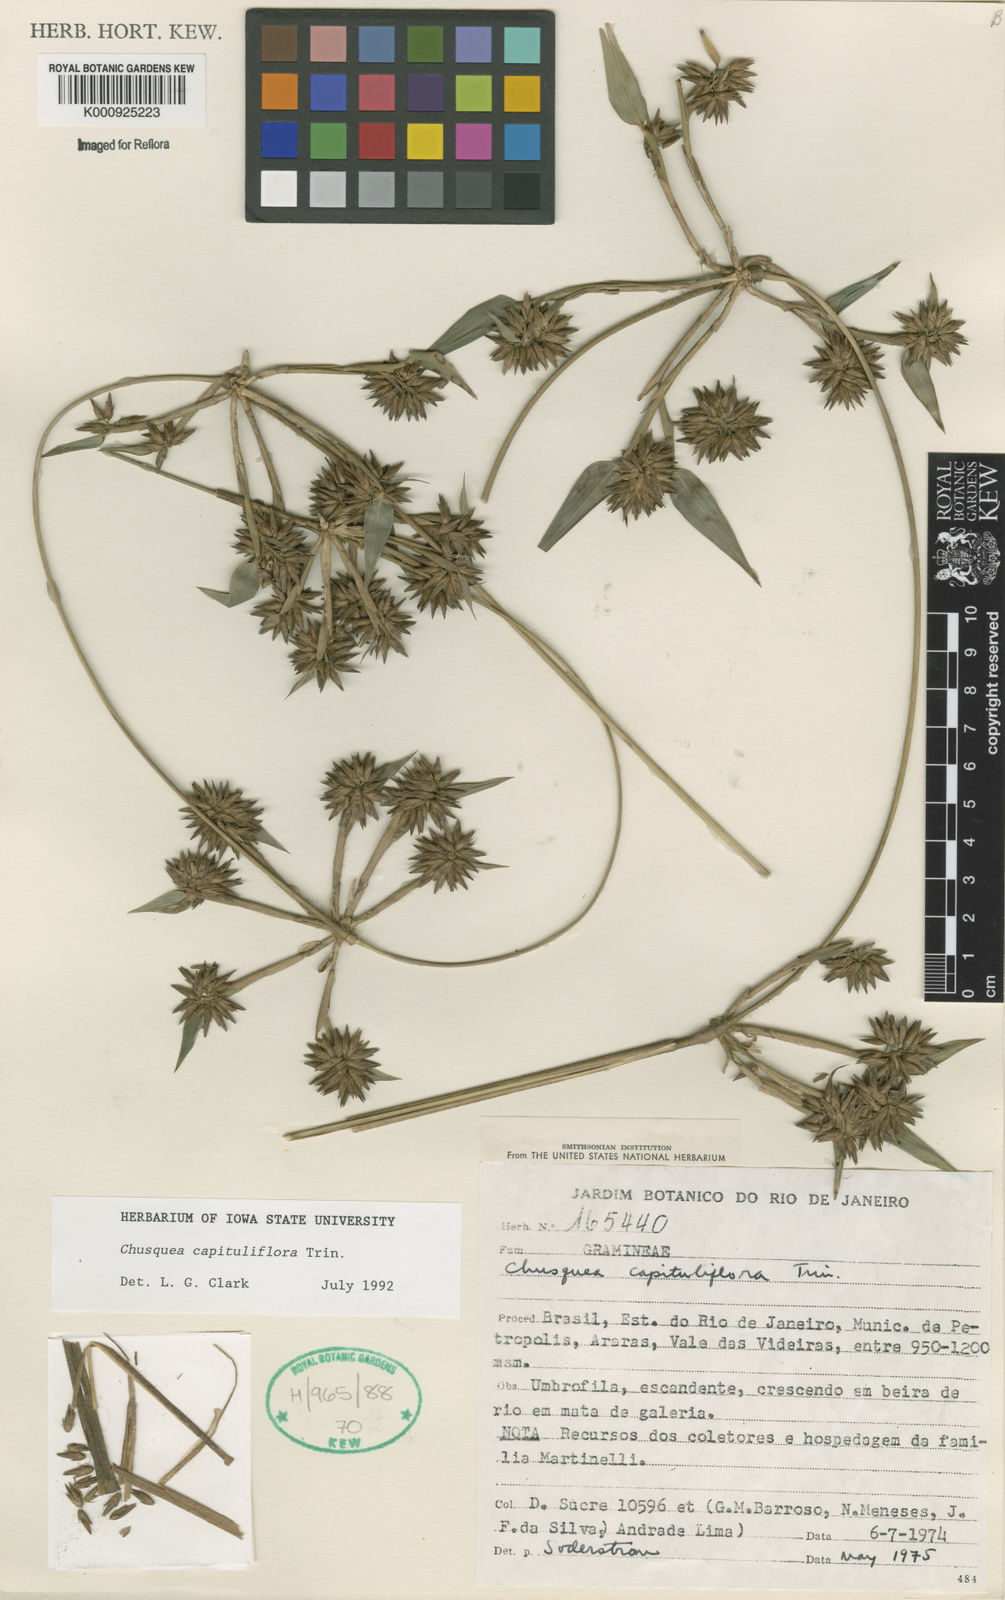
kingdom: Plantae
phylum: Tracheophyta
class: Liliopsida
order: Poales
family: Poaceae
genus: Chusquea
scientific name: Chusquea capituliflora
